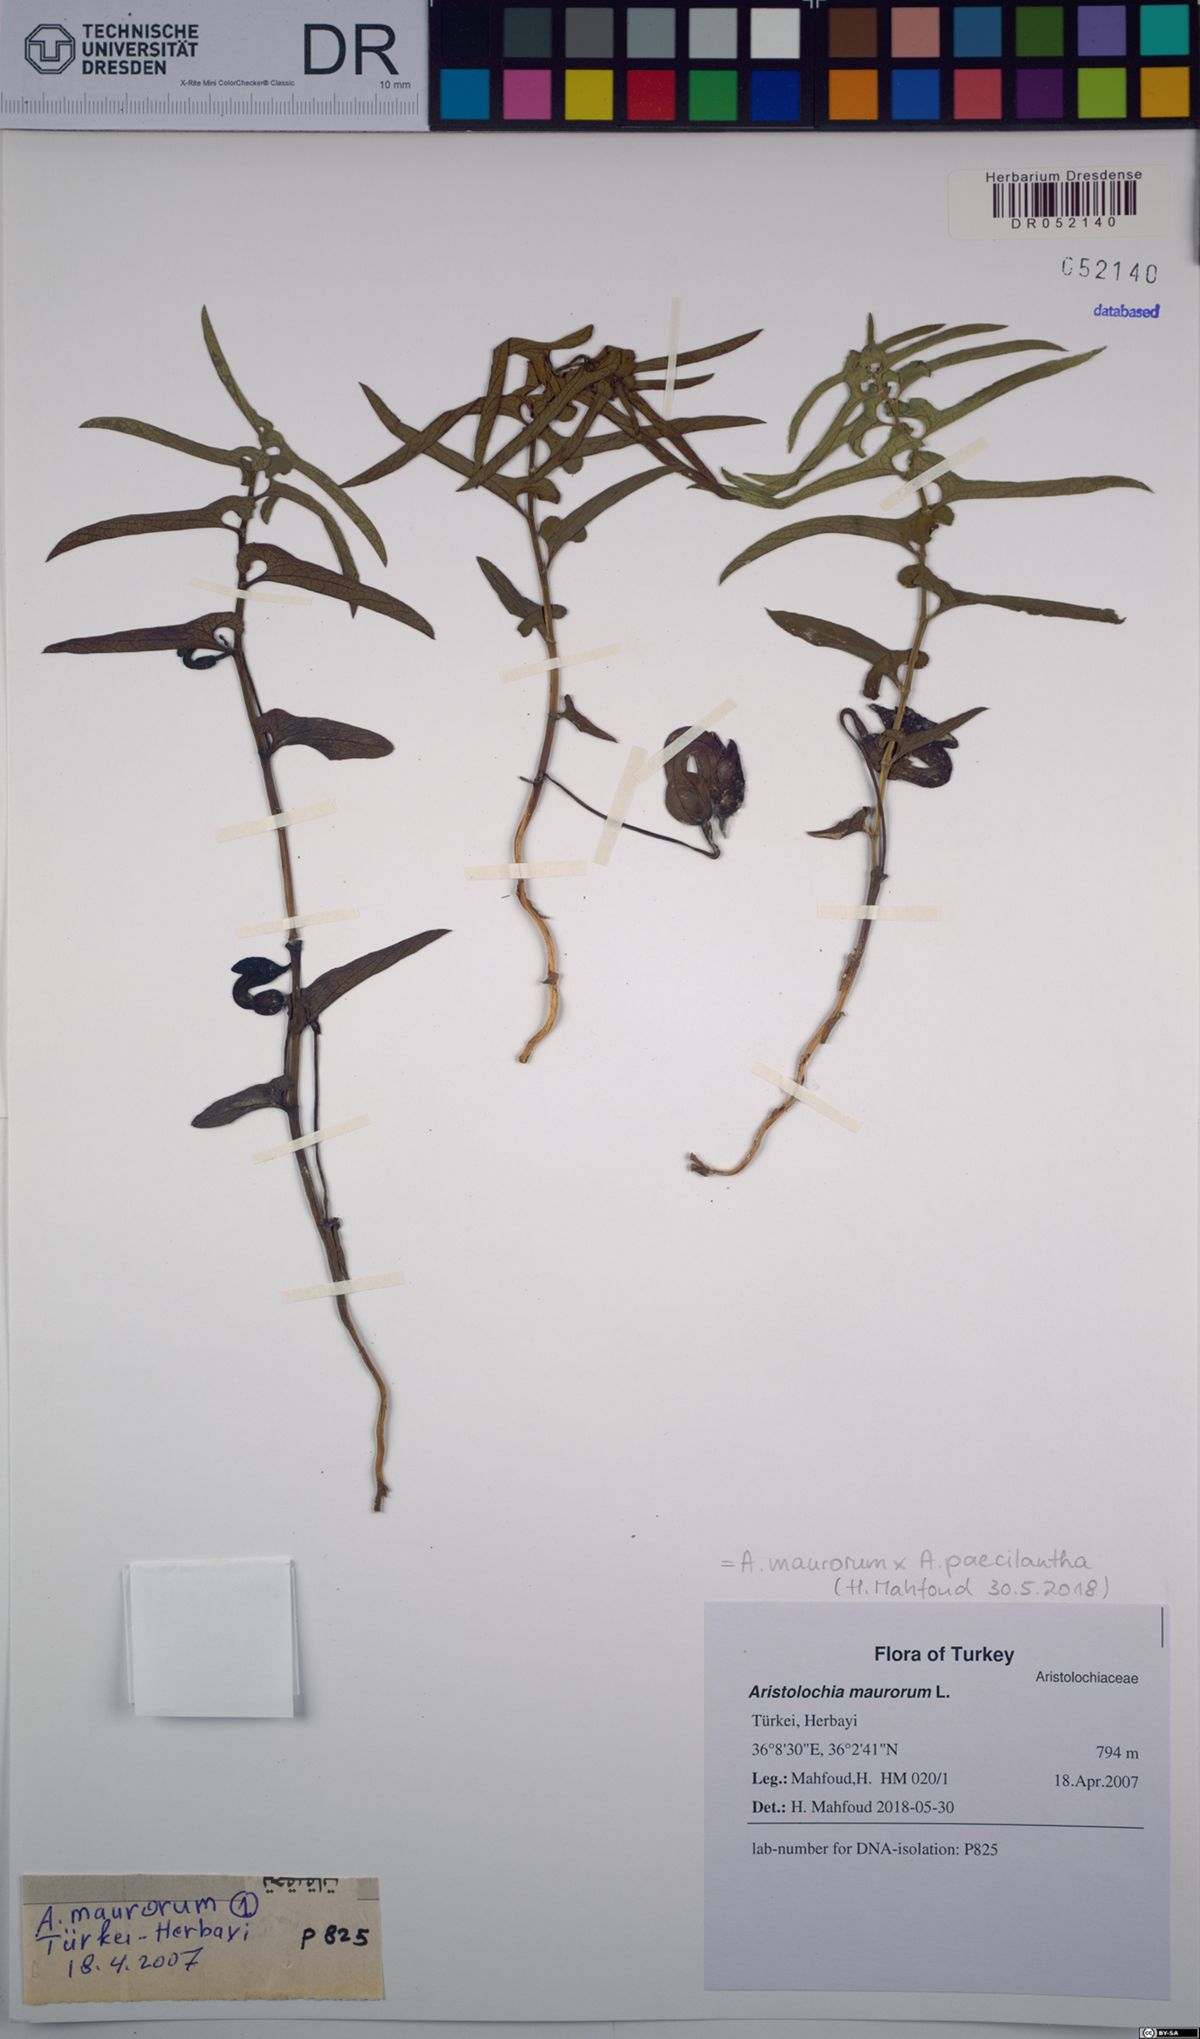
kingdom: Plantae
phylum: Tracheophyta
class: Magnoliopsida
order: Piperales
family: Aristolochiaceae
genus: Aristolochia
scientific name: Aristolochia maurorum
